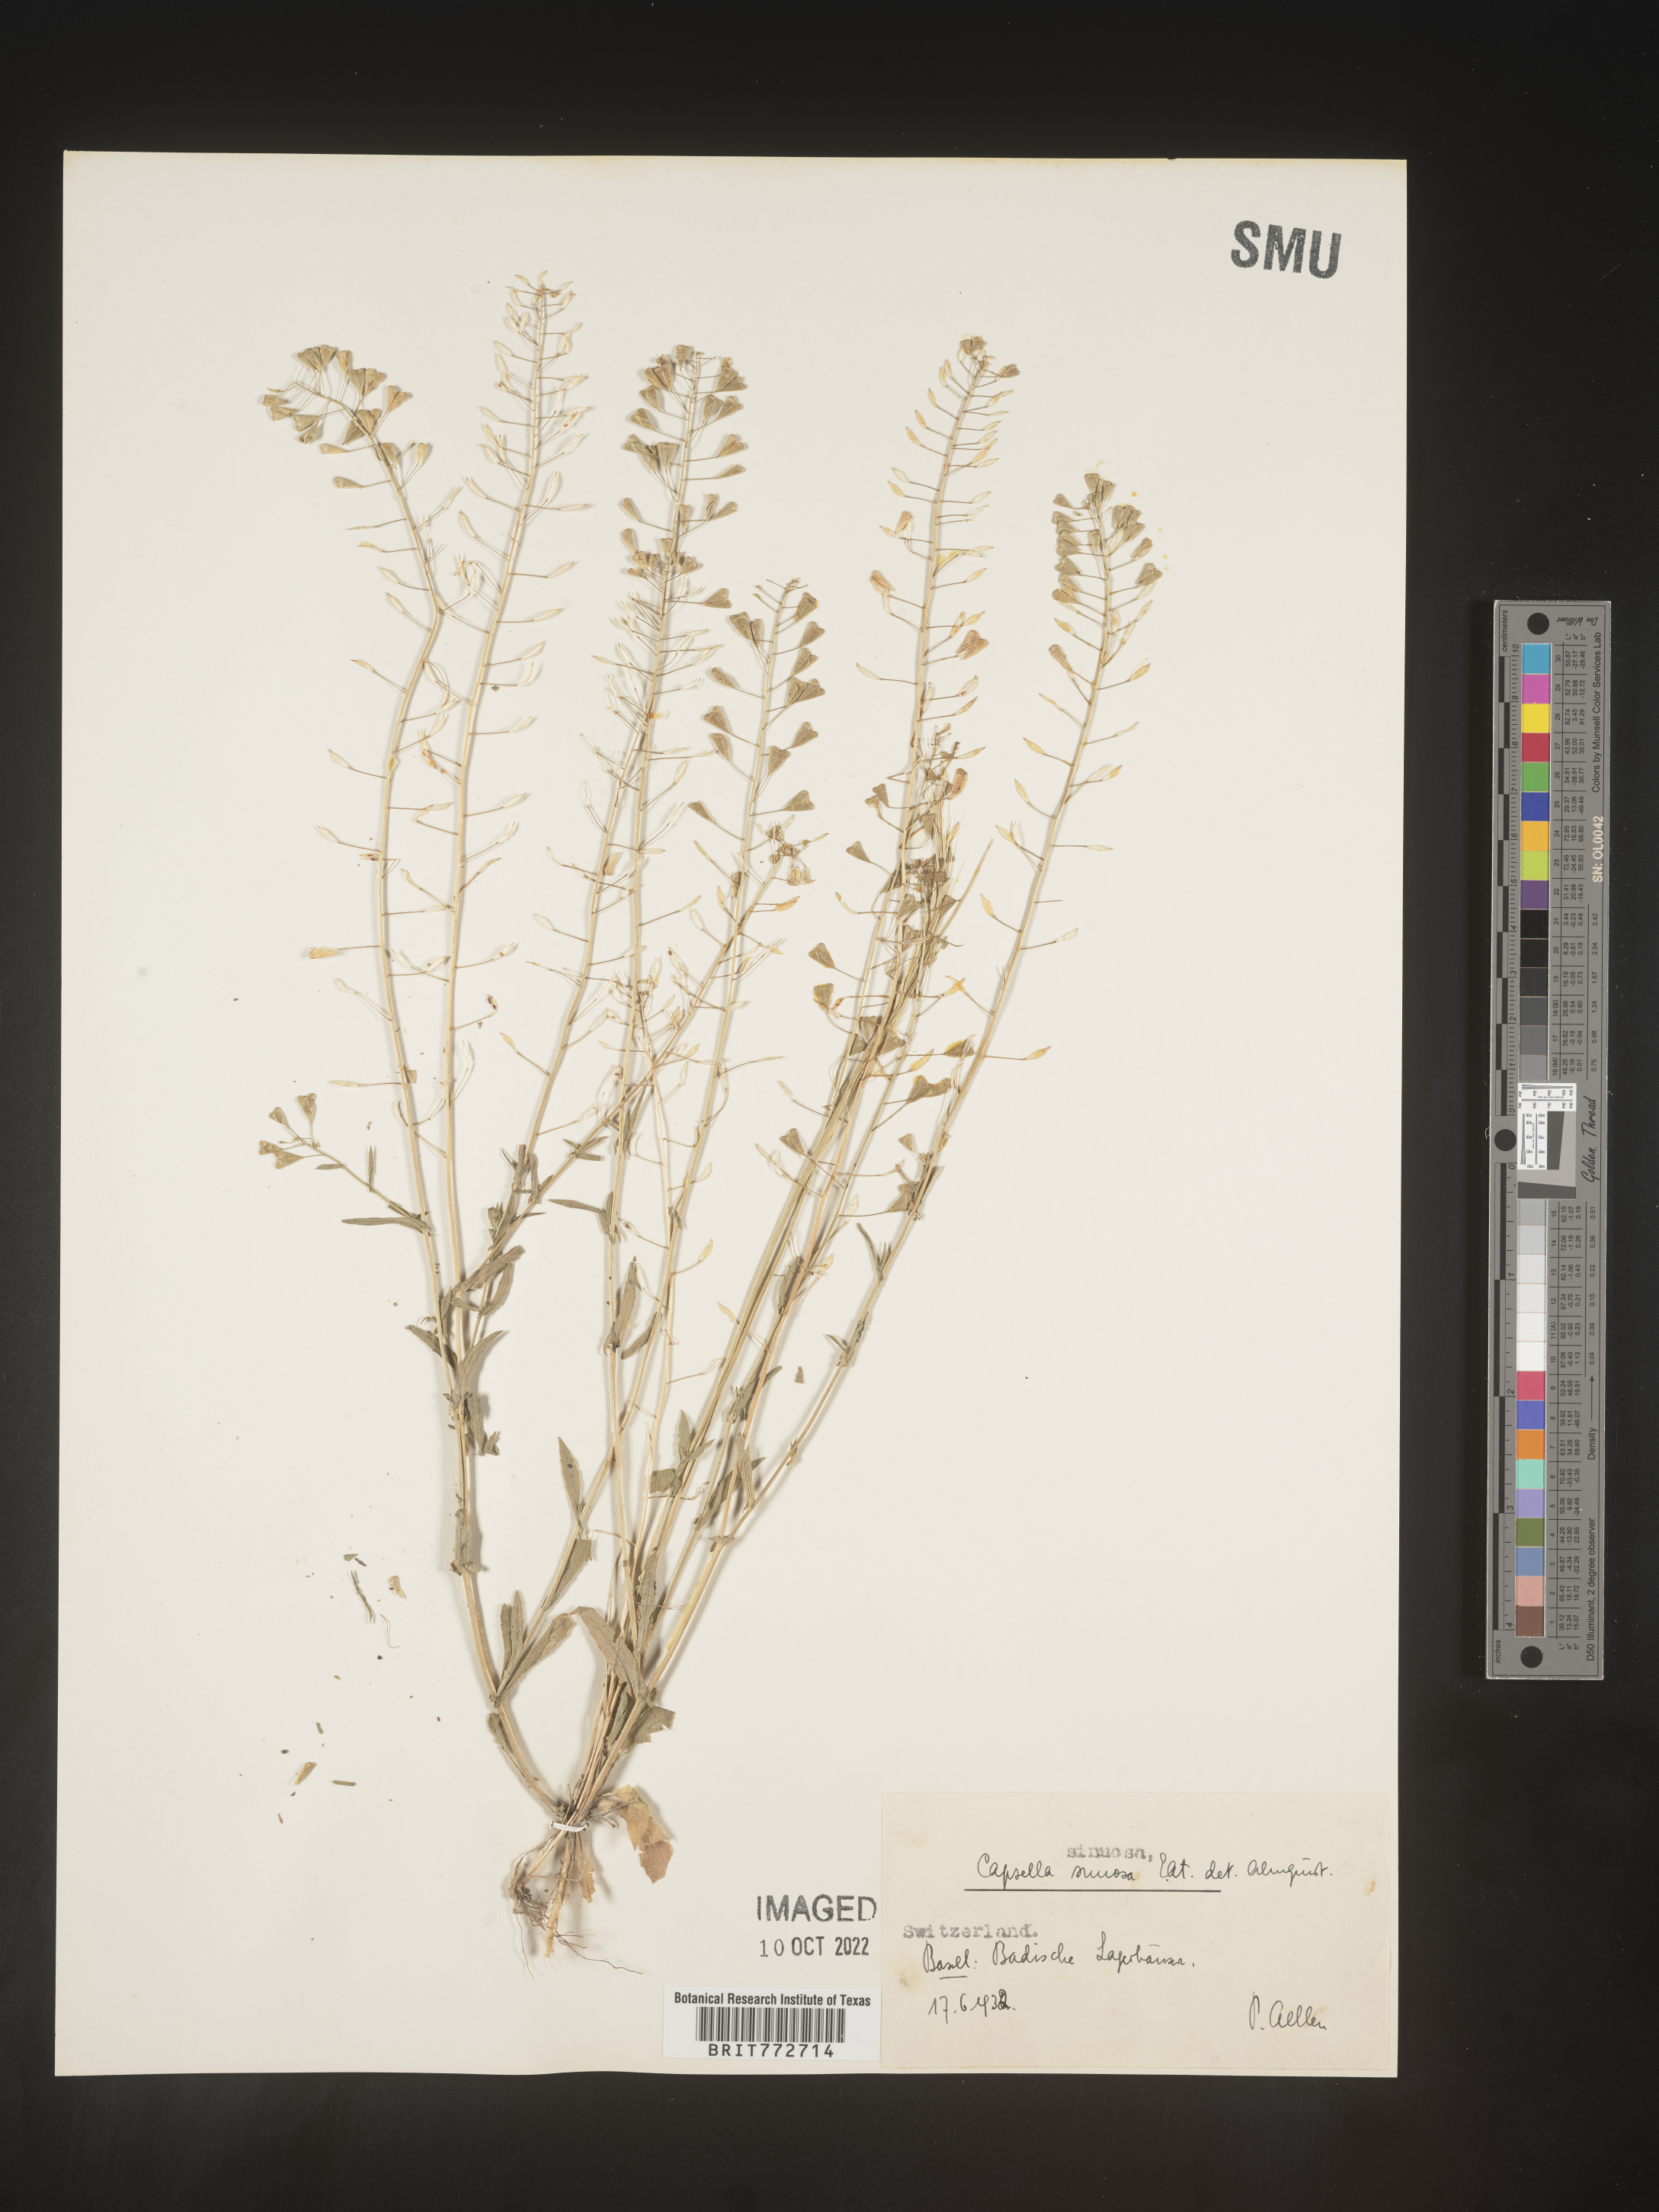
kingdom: Plantae
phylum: Tracheophyta
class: Magnoliopsida
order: Brassicales
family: Brassicaceae
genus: Capsella
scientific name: Capsella
